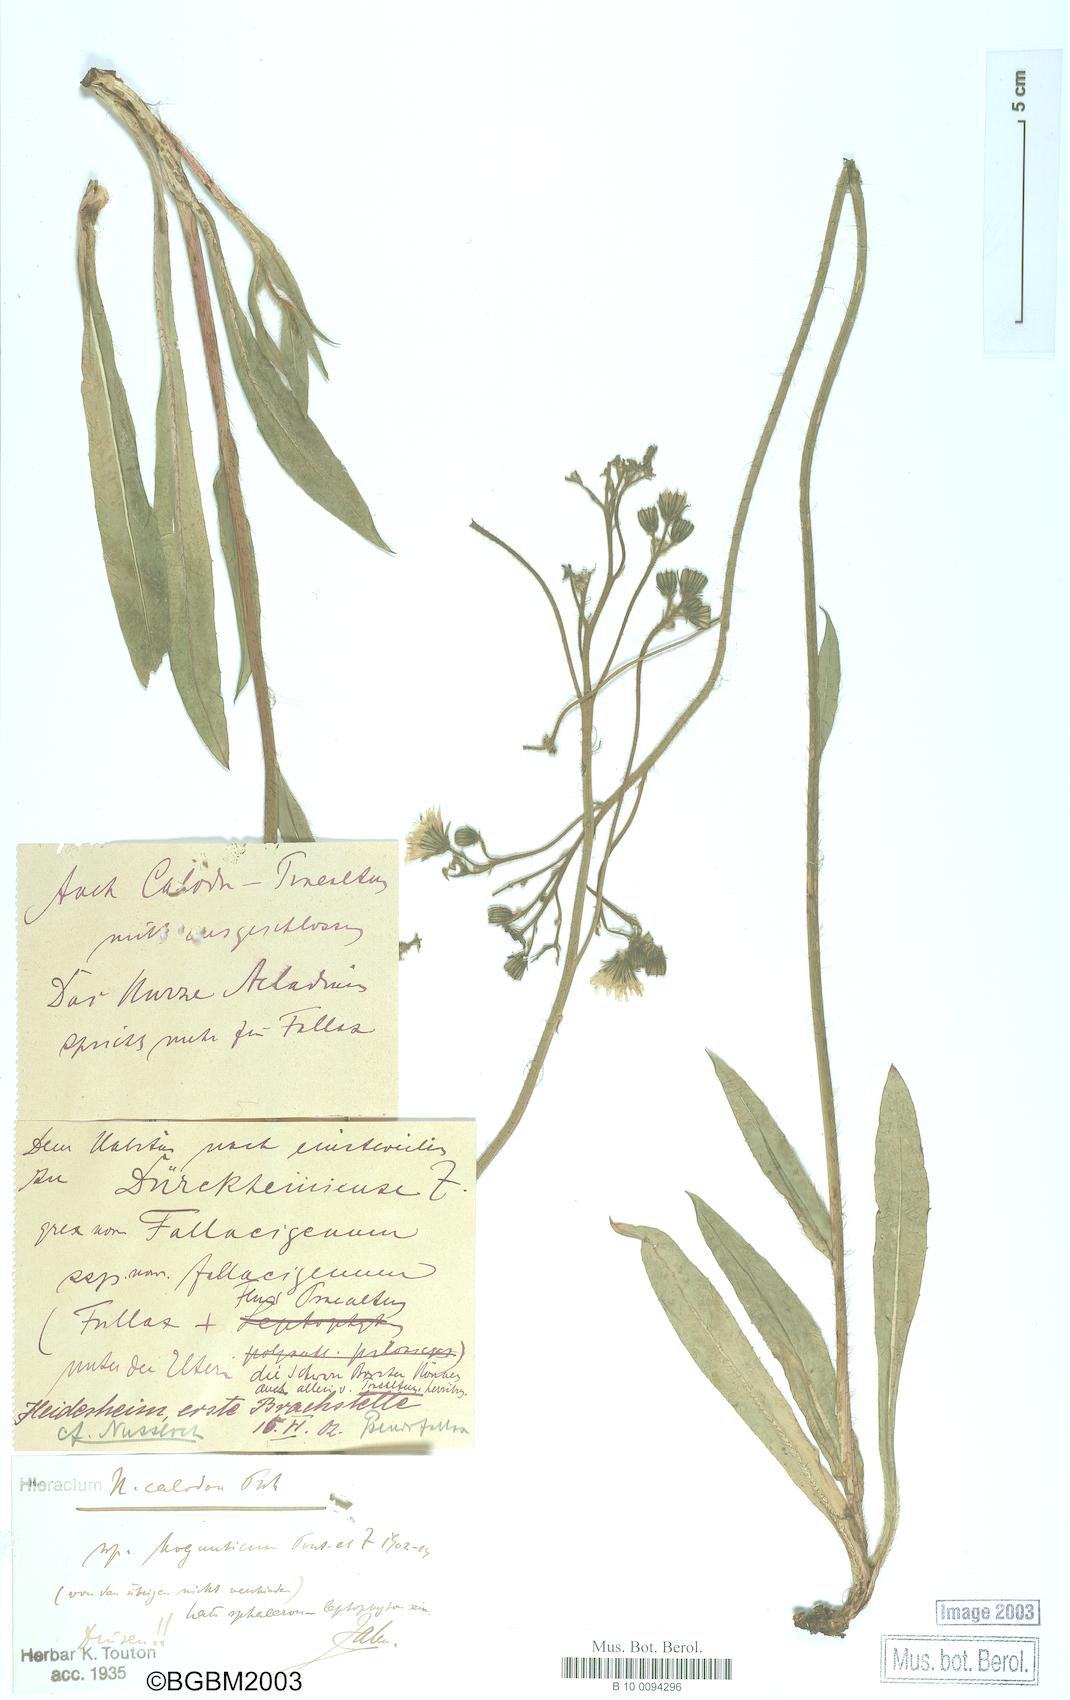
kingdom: Plantae
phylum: Tracheophyta
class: Magnoliopsida
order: Asterales
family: Asteraceae
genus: Pilosella
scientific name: Pilosella duerkhemiensis
